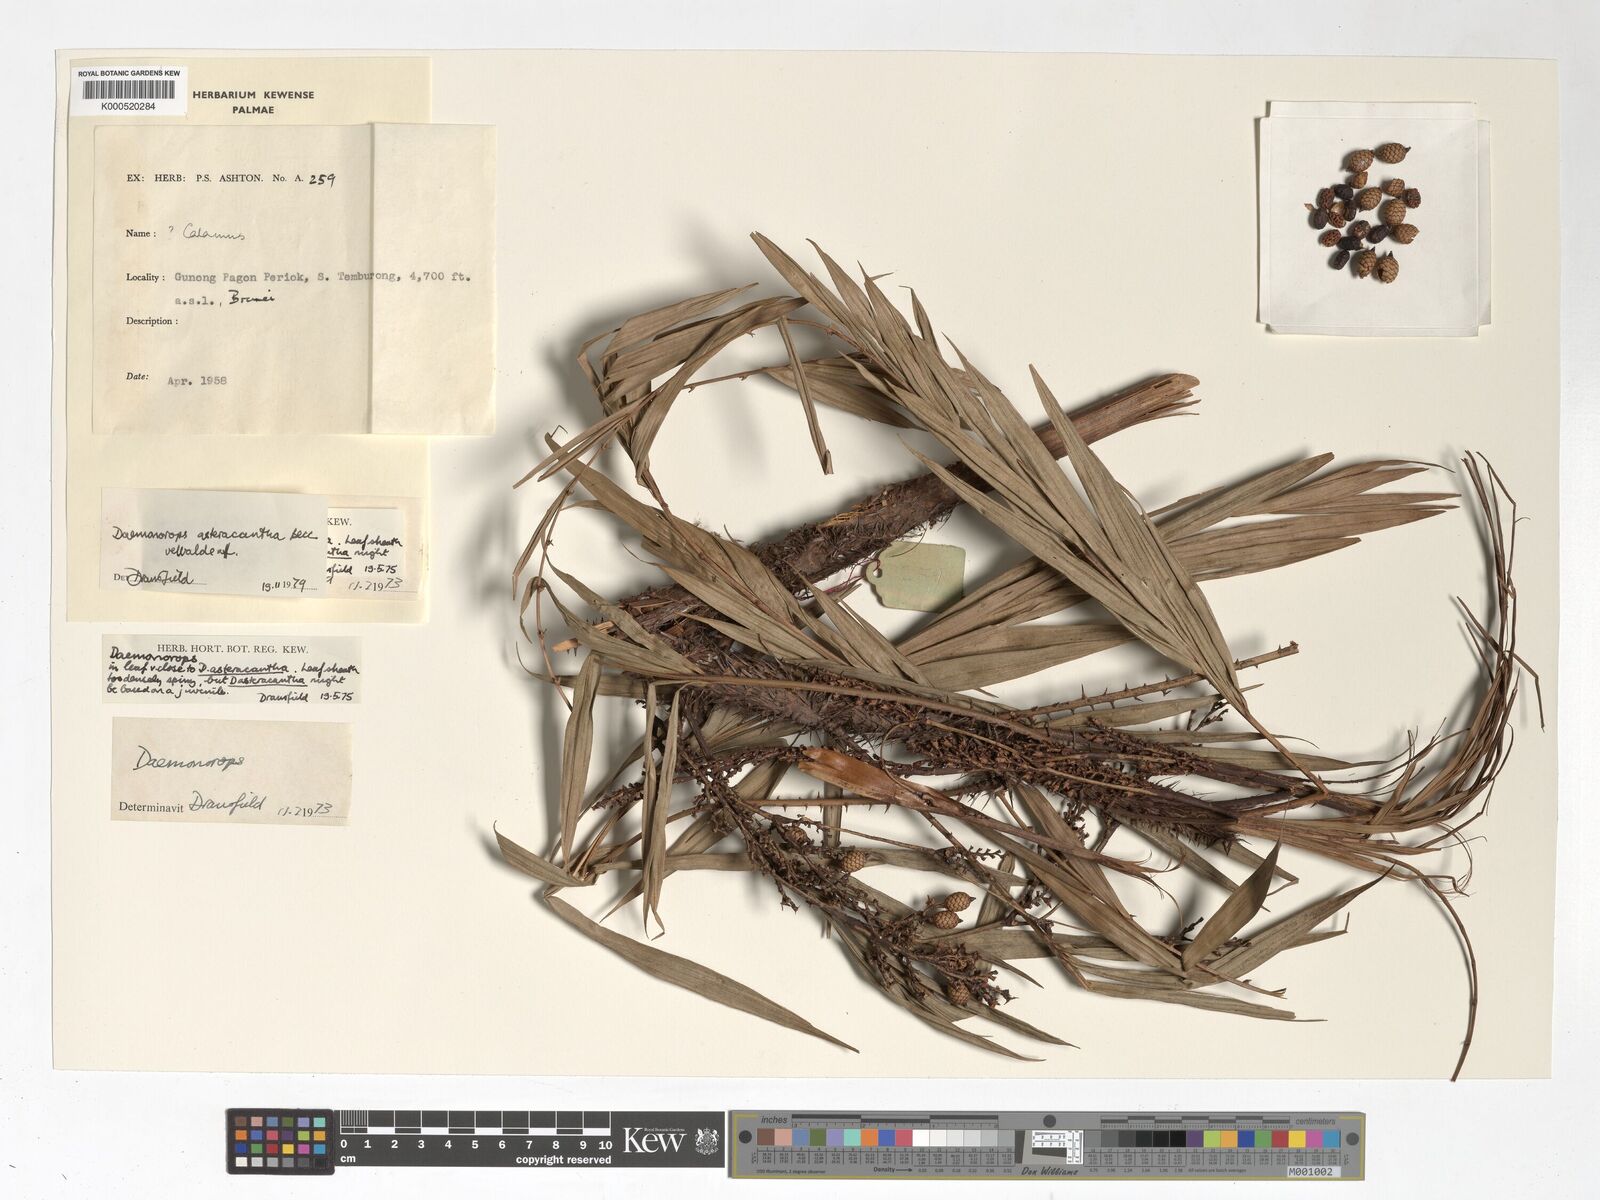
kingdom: Plantae
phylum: Tracheophyta
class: Liliopsida
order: Arecales
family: Arecaceae
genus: Calamus
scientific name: Calamus asteracanthus
